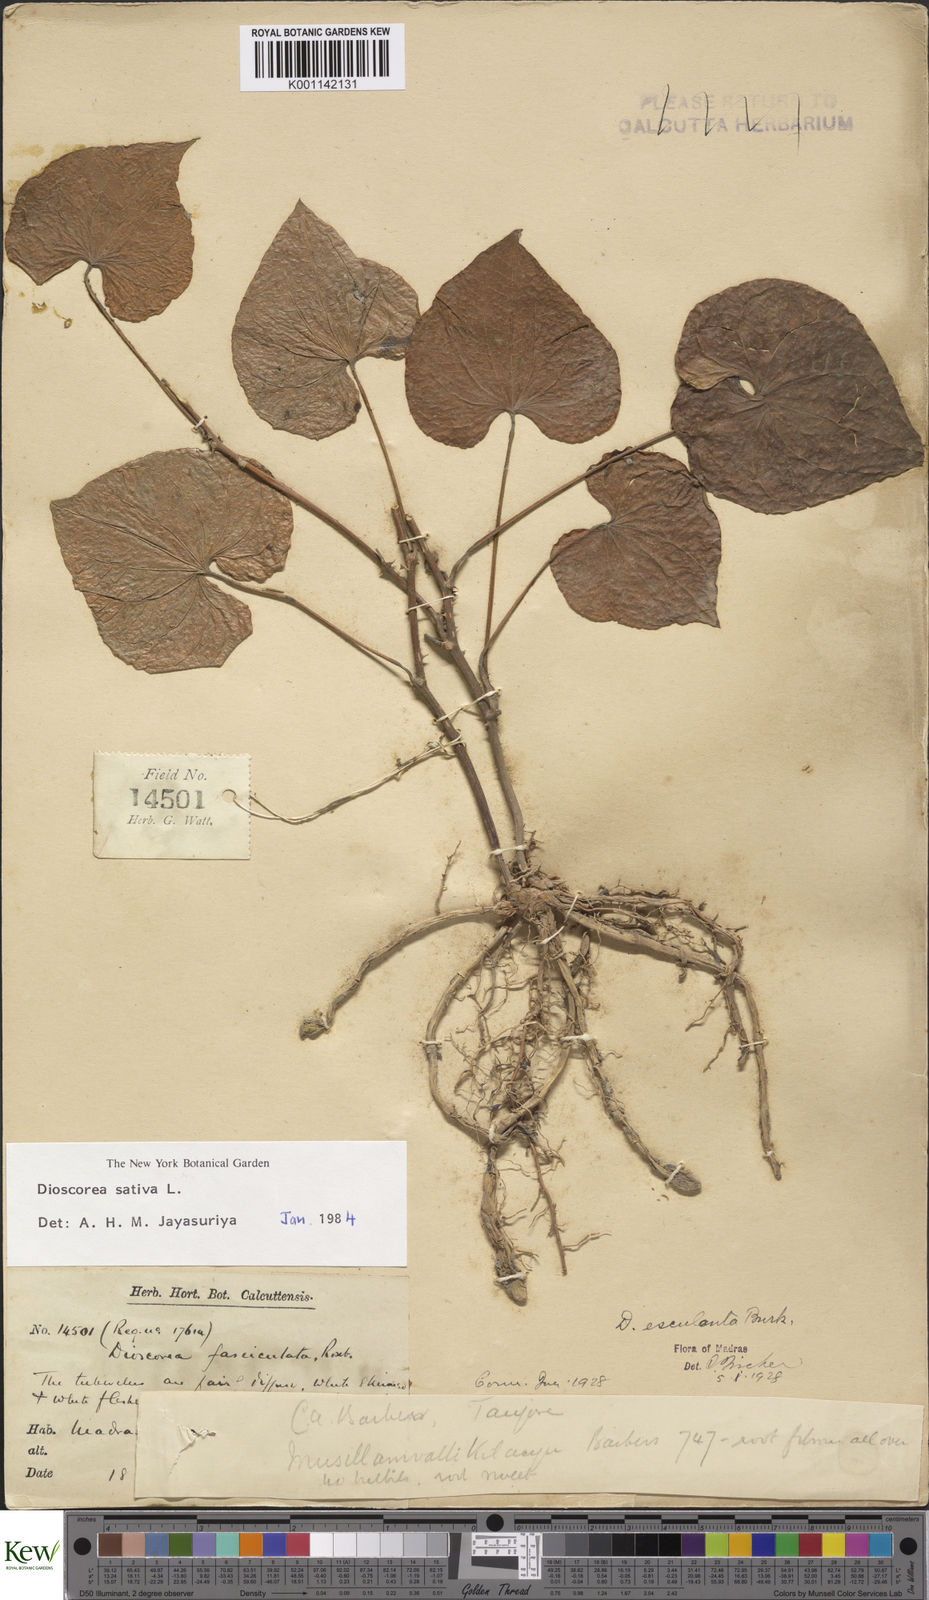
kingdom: Plantae
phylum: Tracheophyta
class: Liliopsida
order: Dioscoreales
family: Dioscoreaceae
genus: Dioscorea
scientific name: Dioscorea esculenta
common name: Chinese yam
